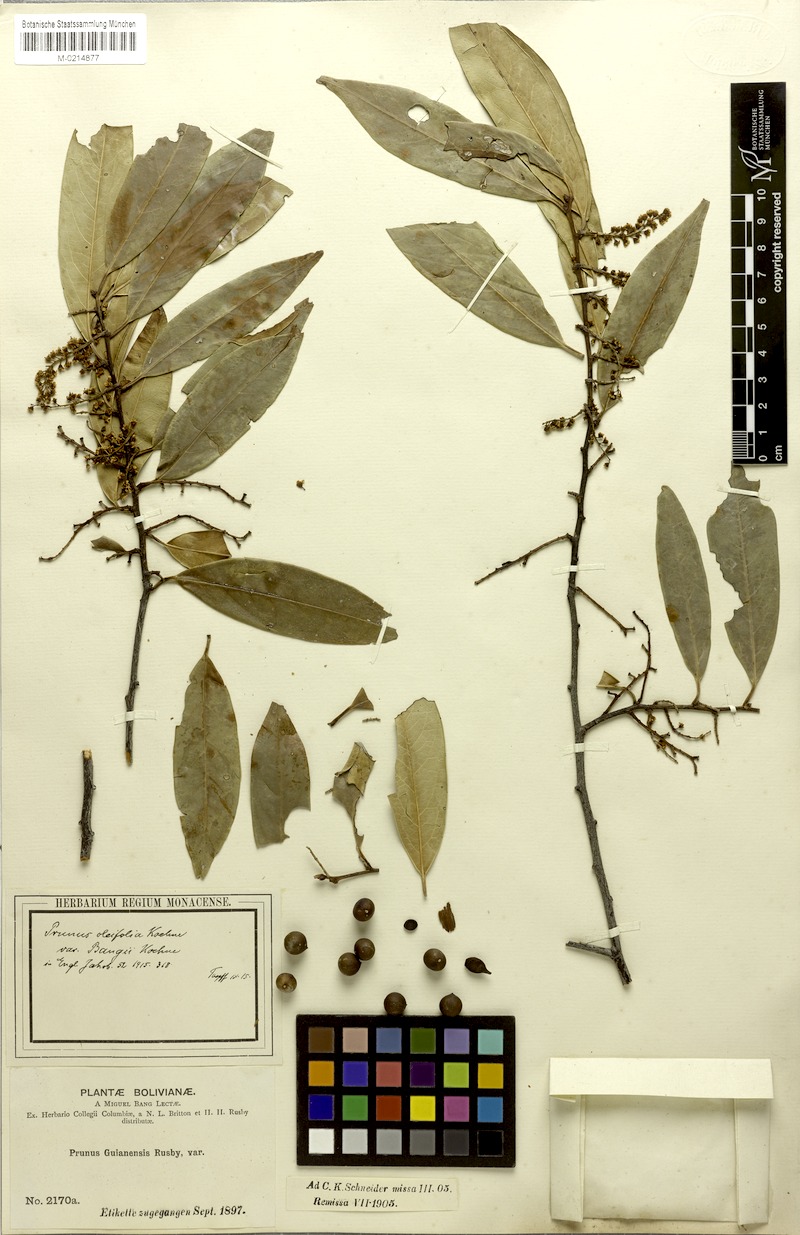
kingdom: Plantae
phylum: Tracheophyta
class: Magnoliopsida
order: Rosales
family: Rosaceae
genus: Prunus
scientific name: Prunus oleifolia
